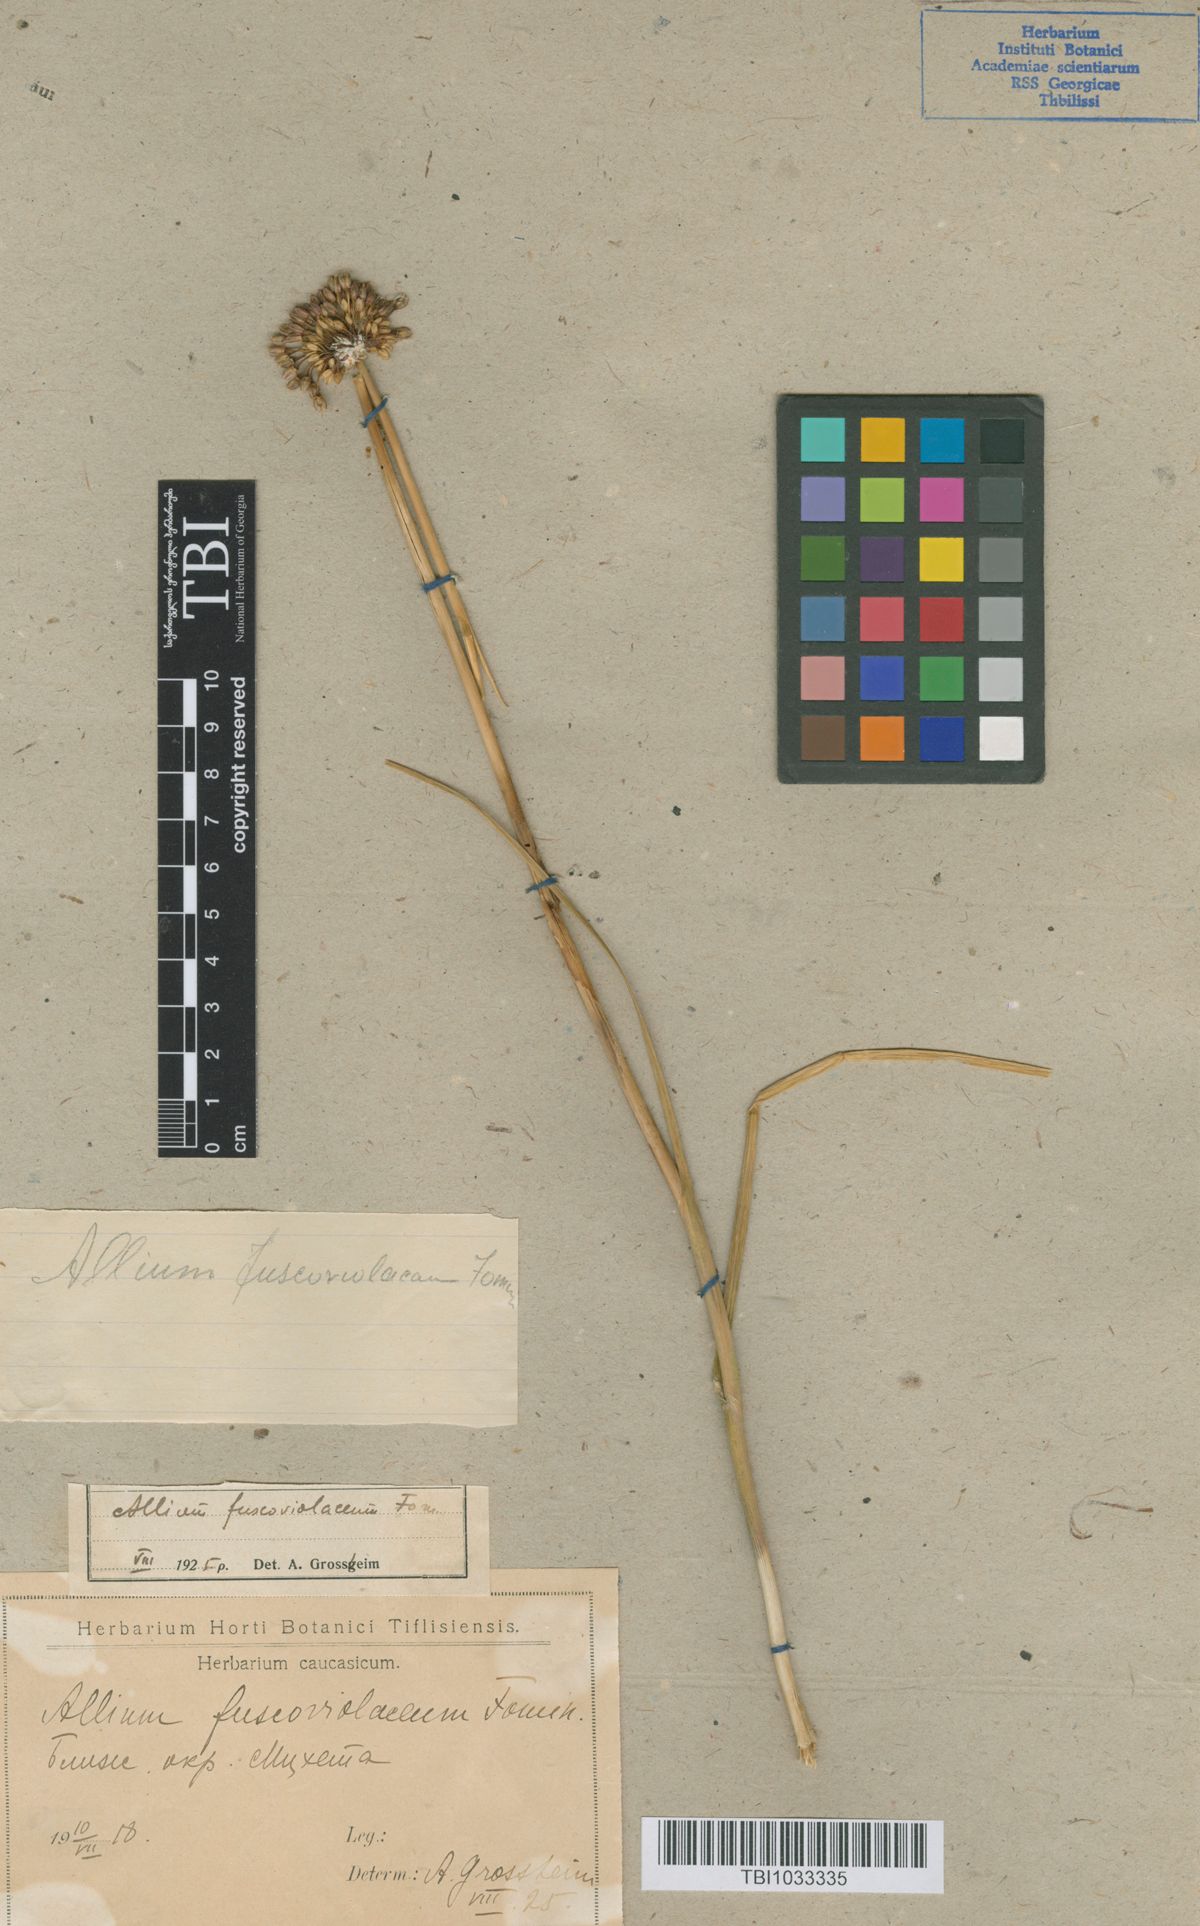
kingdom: Plantae
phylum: Tracheophyta
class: Liliopsida
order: Asparagales
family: Amaryllidaceae
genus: Allium
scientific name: Allium fuscoviolaceum
